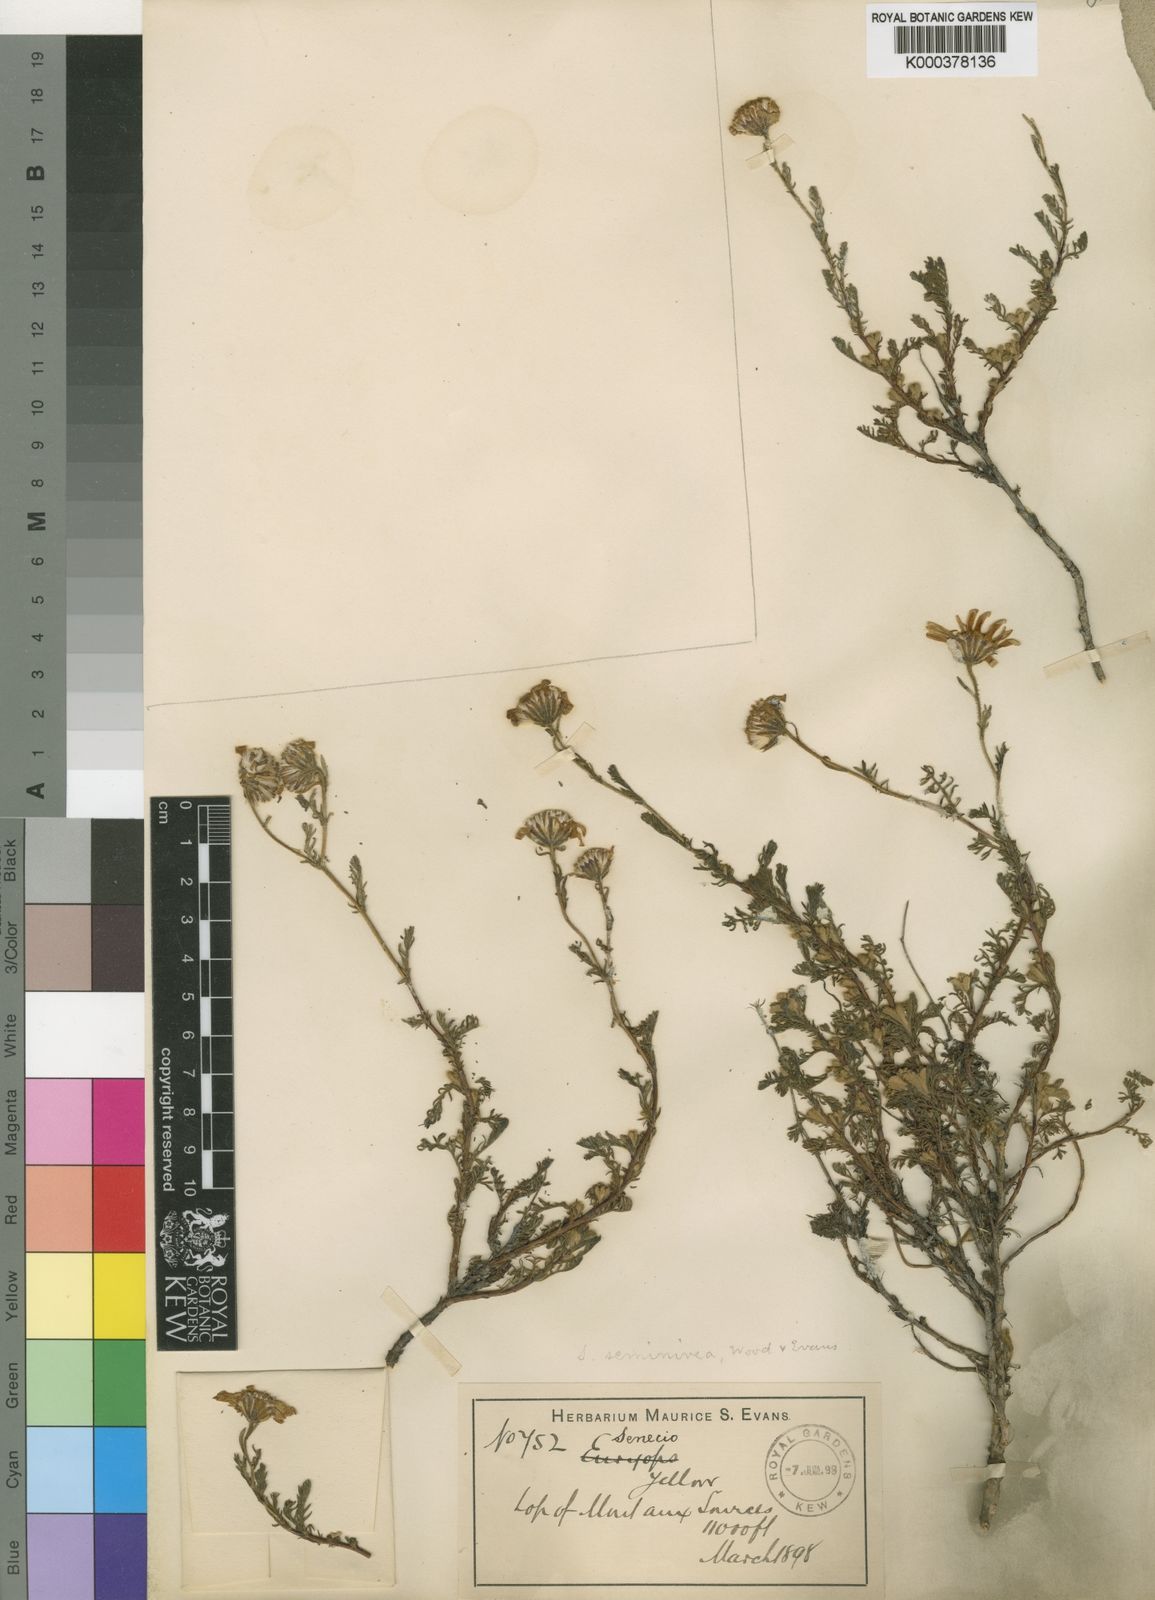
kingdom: Plantae
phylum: Tracheophyta
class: Magnoliopsida
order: Asterales
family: Asteraceae
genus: Senecio
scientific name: Senecio seminiveus
